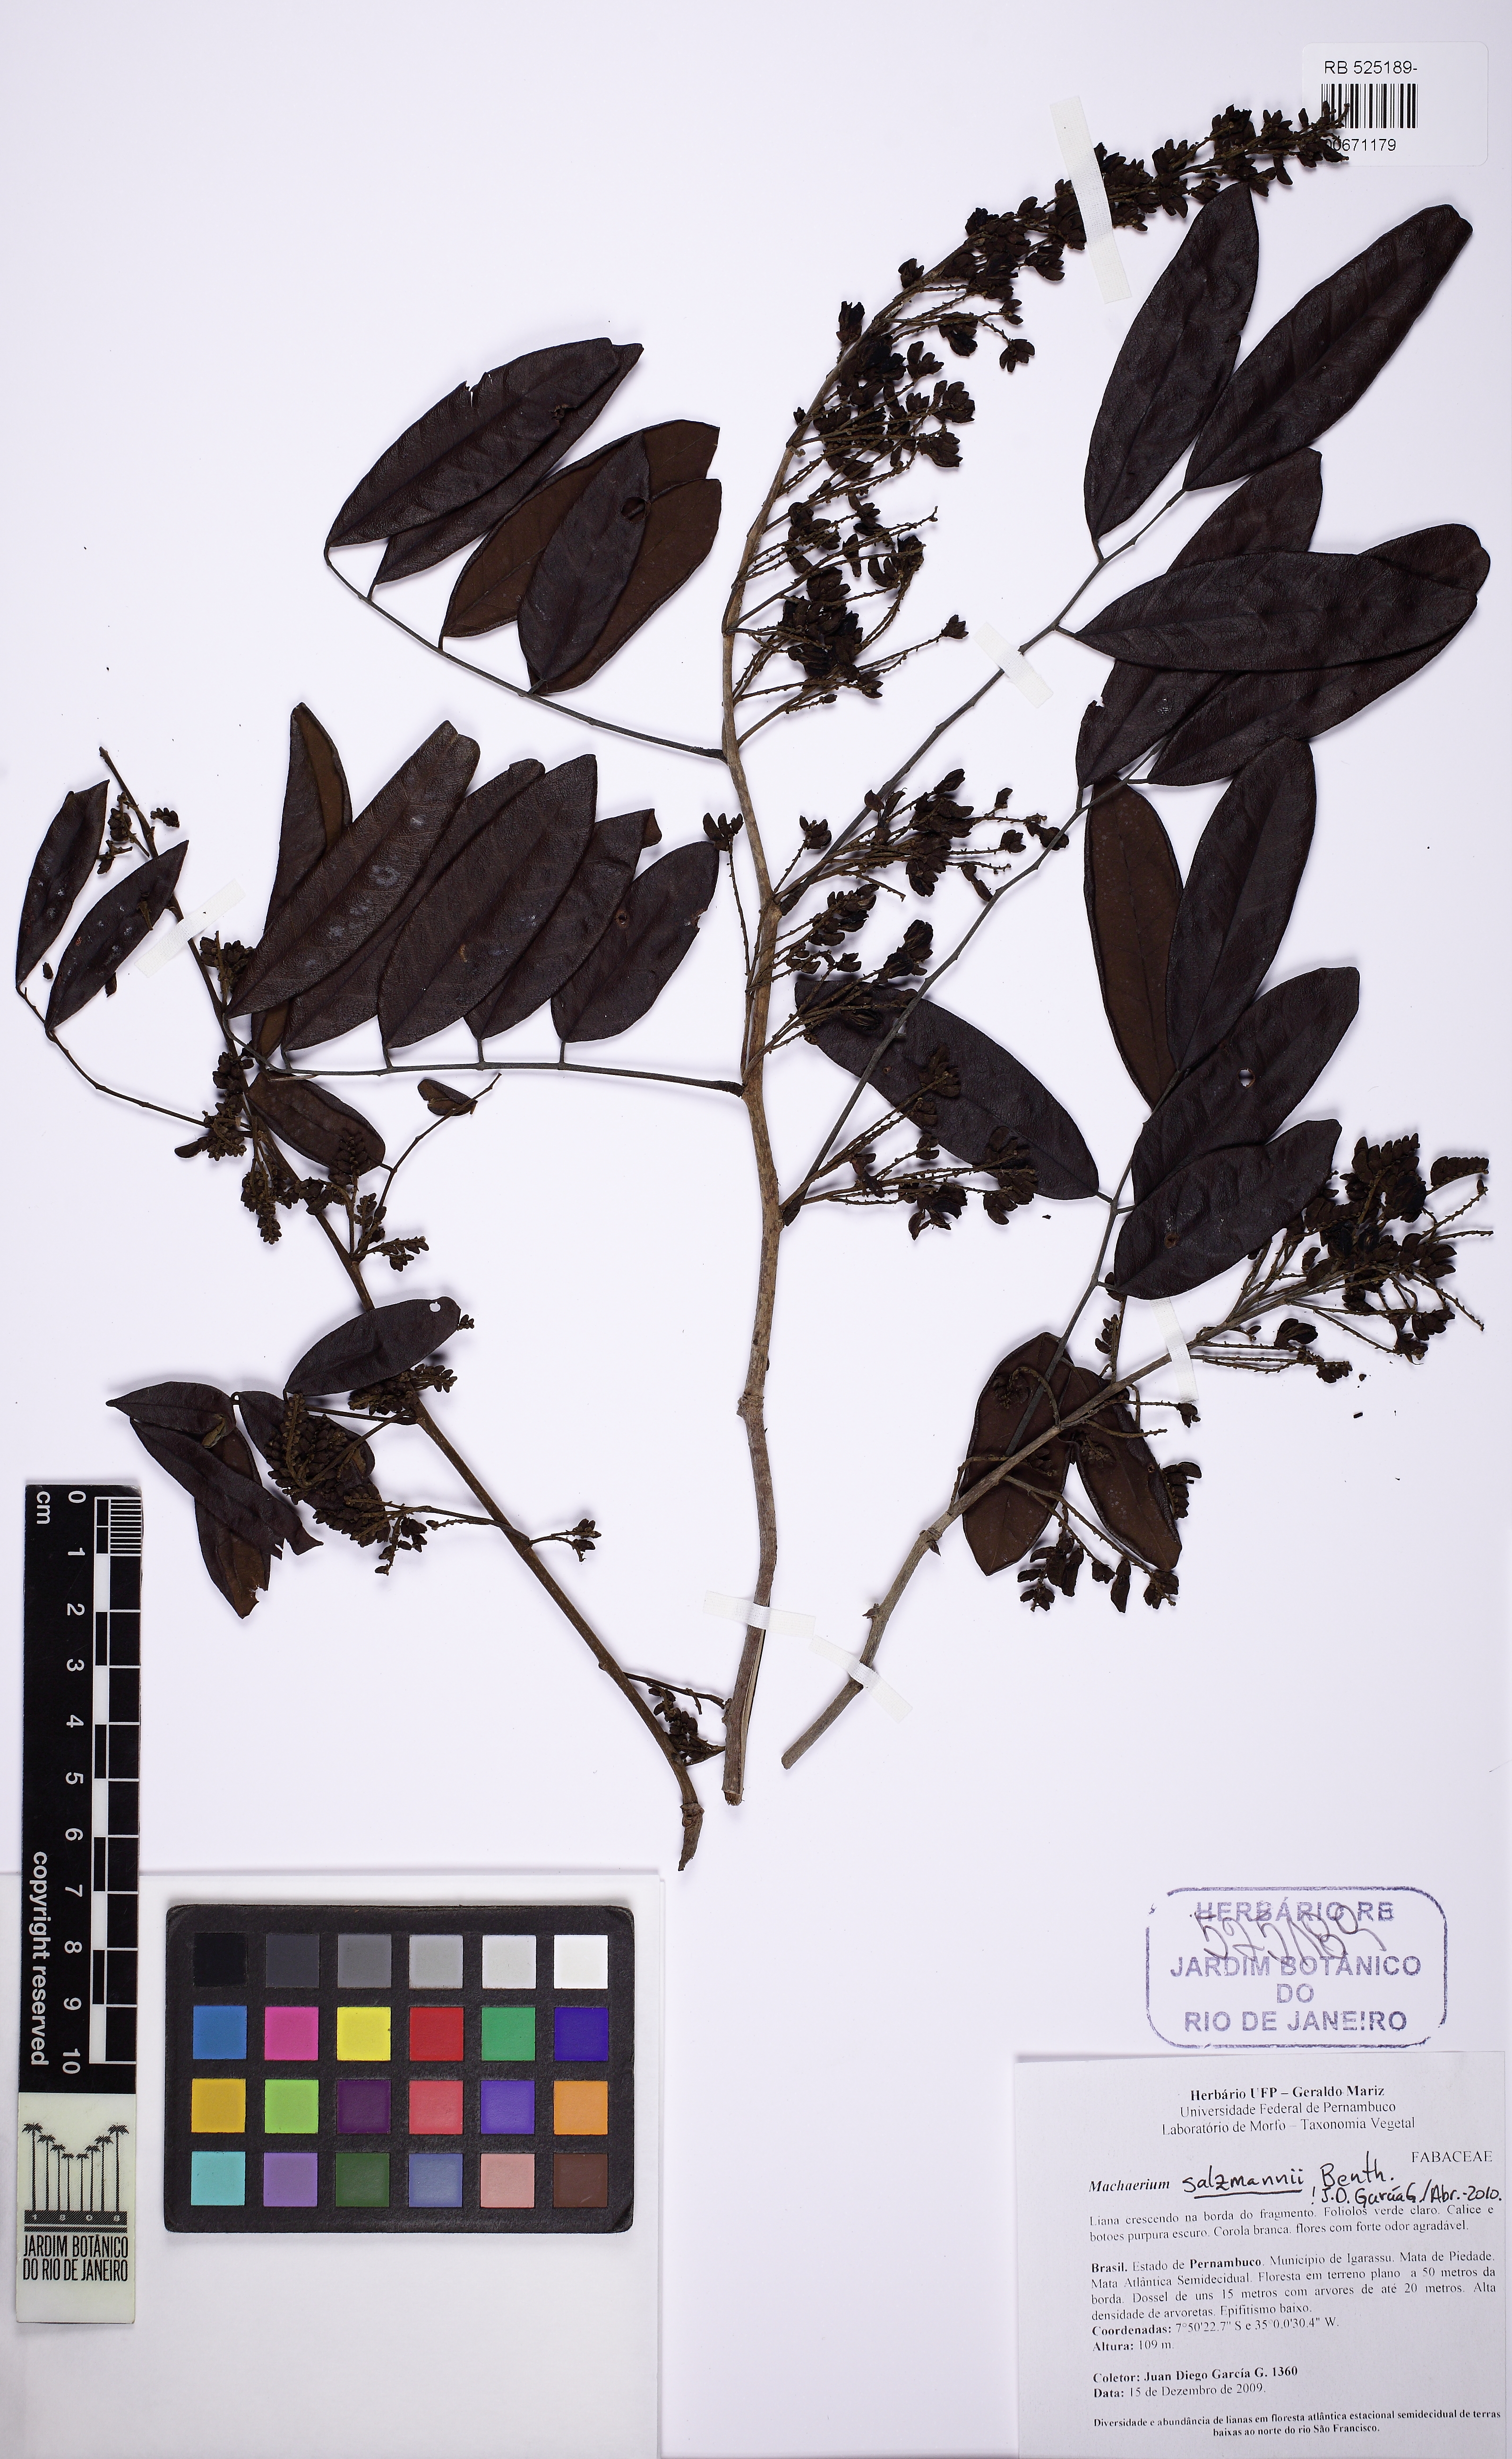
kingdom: Plantae
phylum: Tracheophyta
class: Magnoliopsida
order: Fabales
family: Fabaceae
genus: Machaerium
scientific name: Machaerium salzmannii
